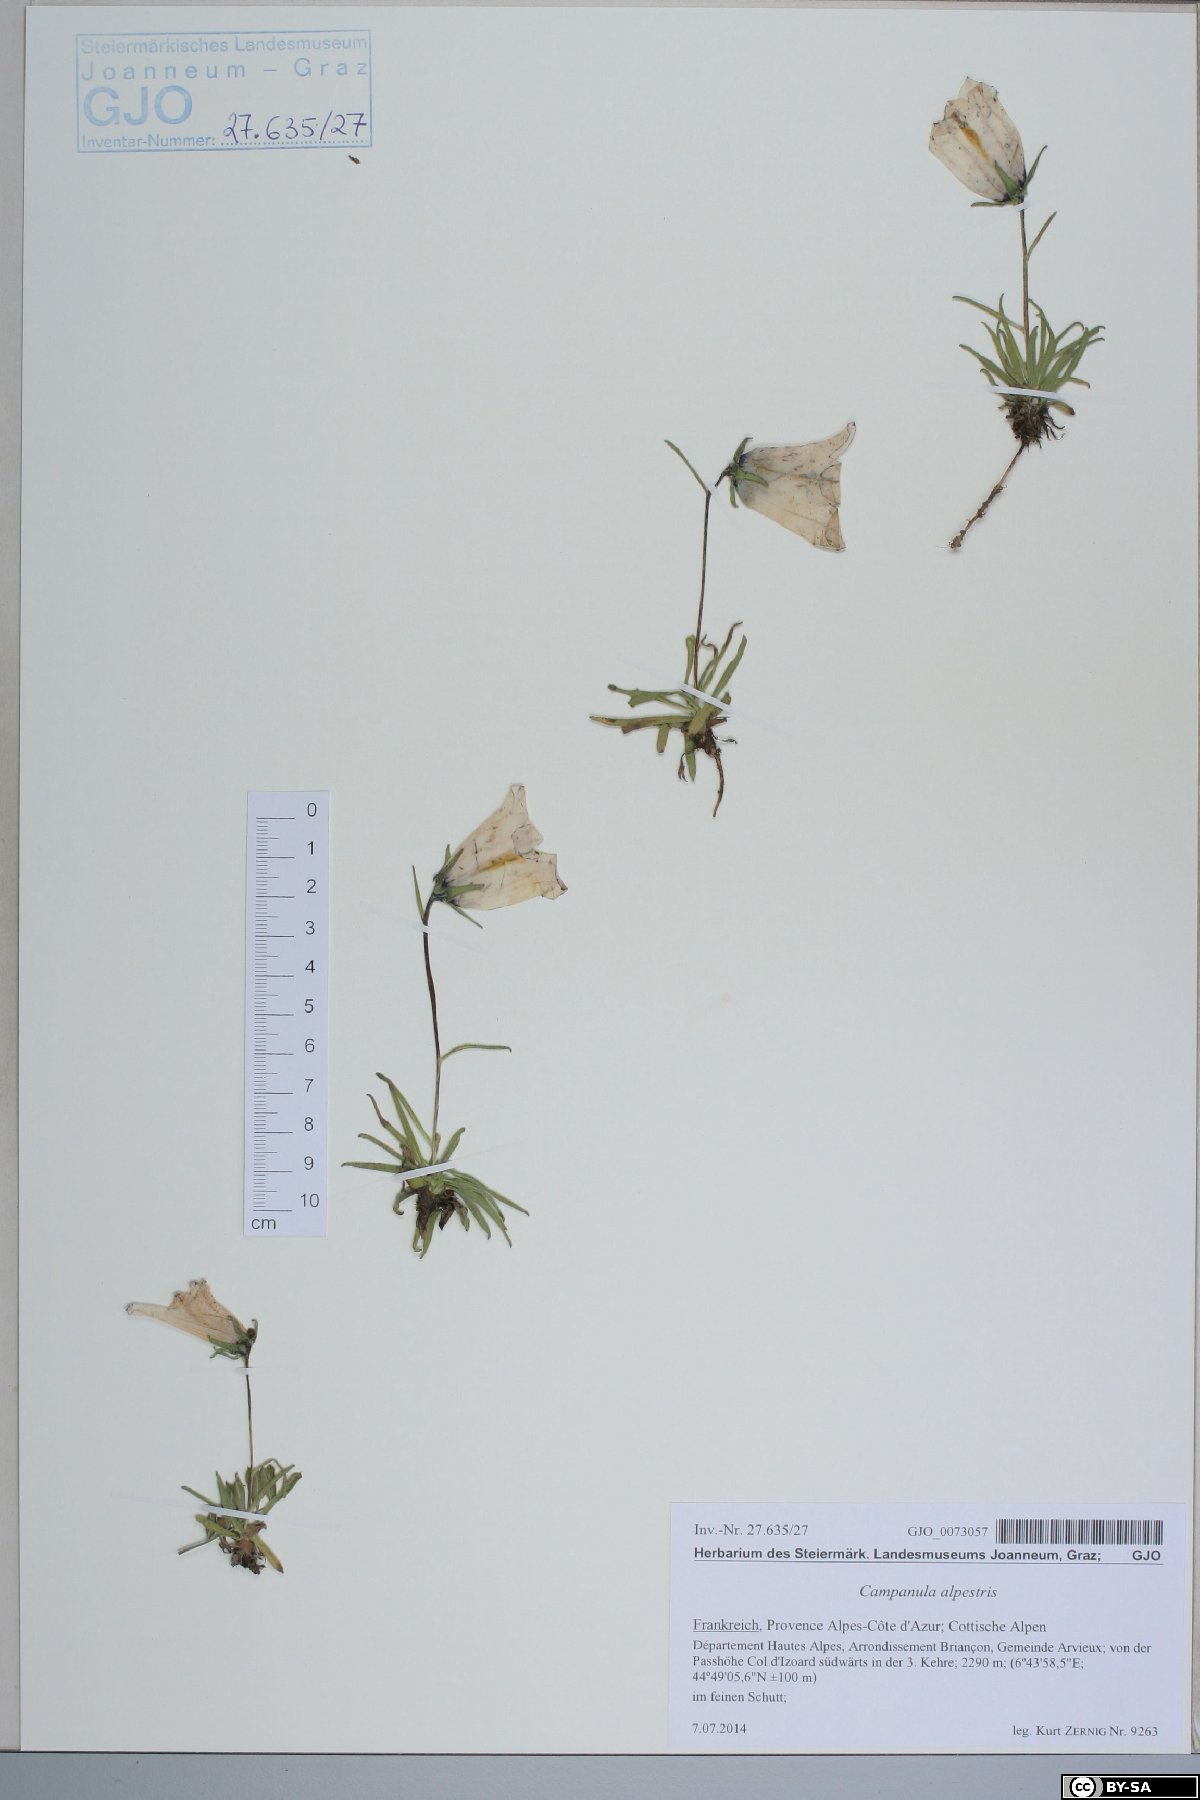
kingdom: Plantae
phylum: Tracheophyta
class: Magnoliopsida
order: Asterales
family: Campanulaceae
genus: Campanula
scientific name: Campanula alpestris
